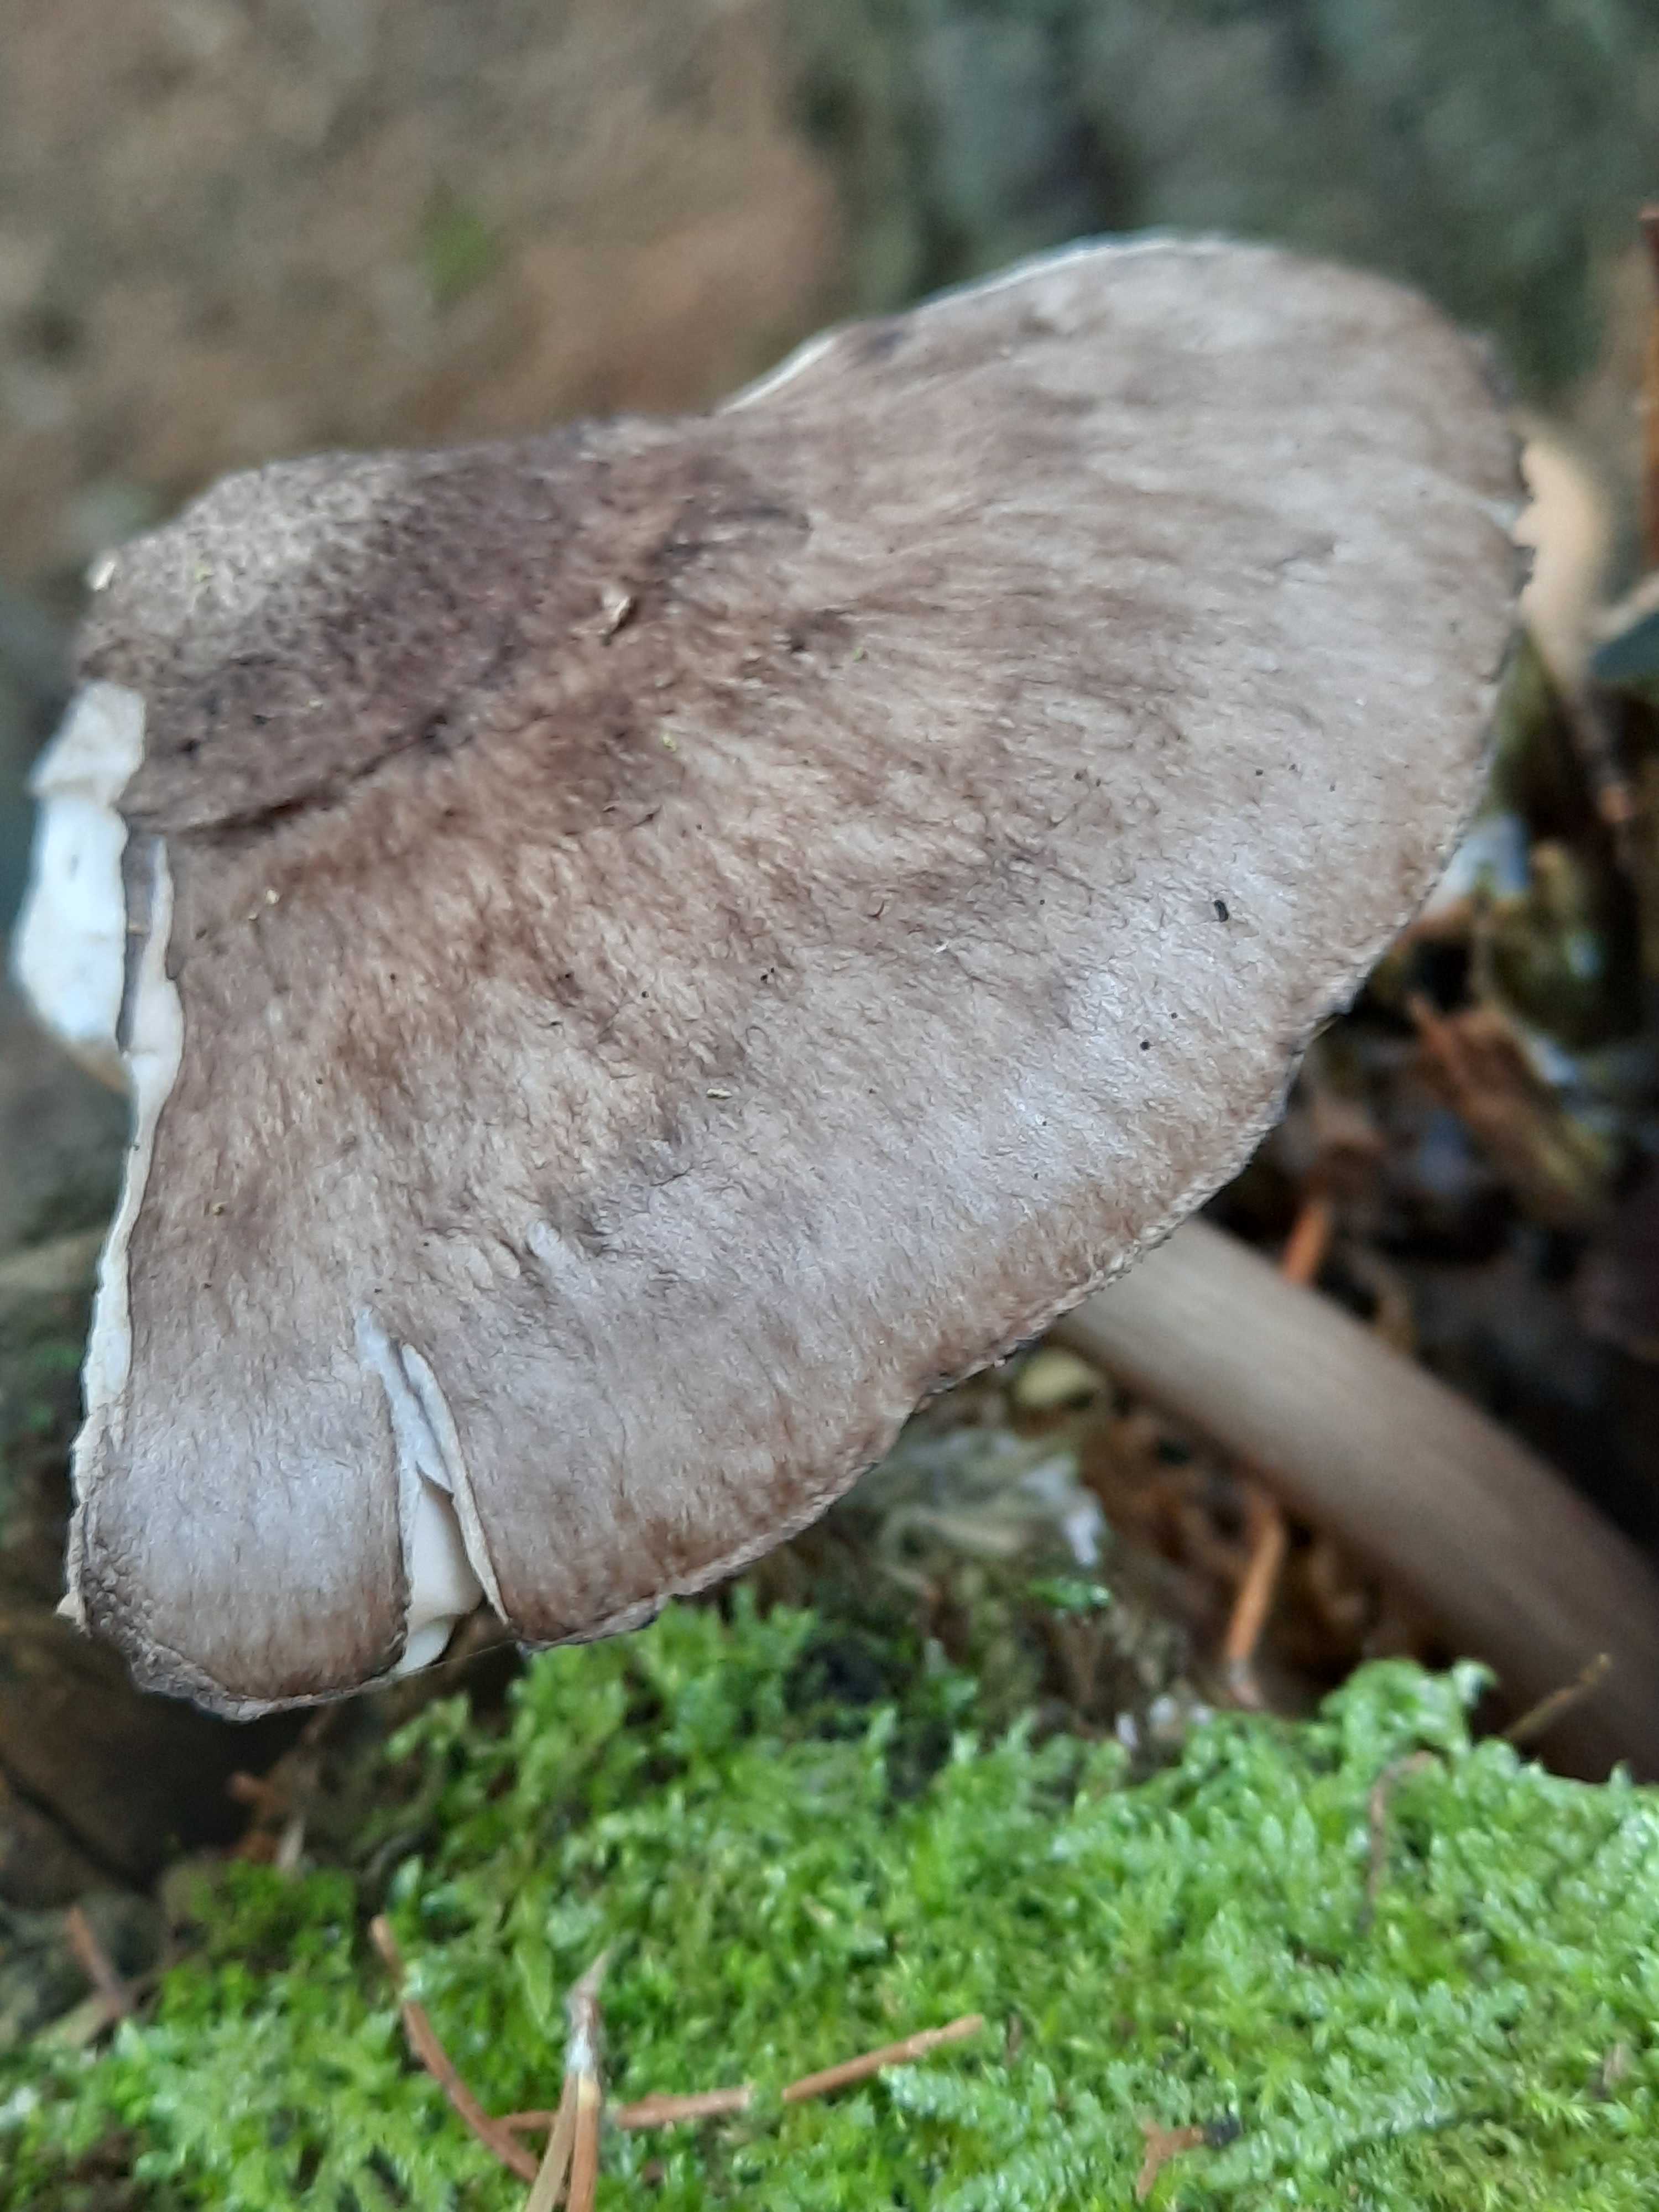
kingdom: Fungi
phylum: Basidiomycota
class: Agaricomycetes
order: Agaricales
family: Pluteaceae
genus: Pluteus
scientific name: Pluteus atromarginatus
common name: sortrandet skærmhat
